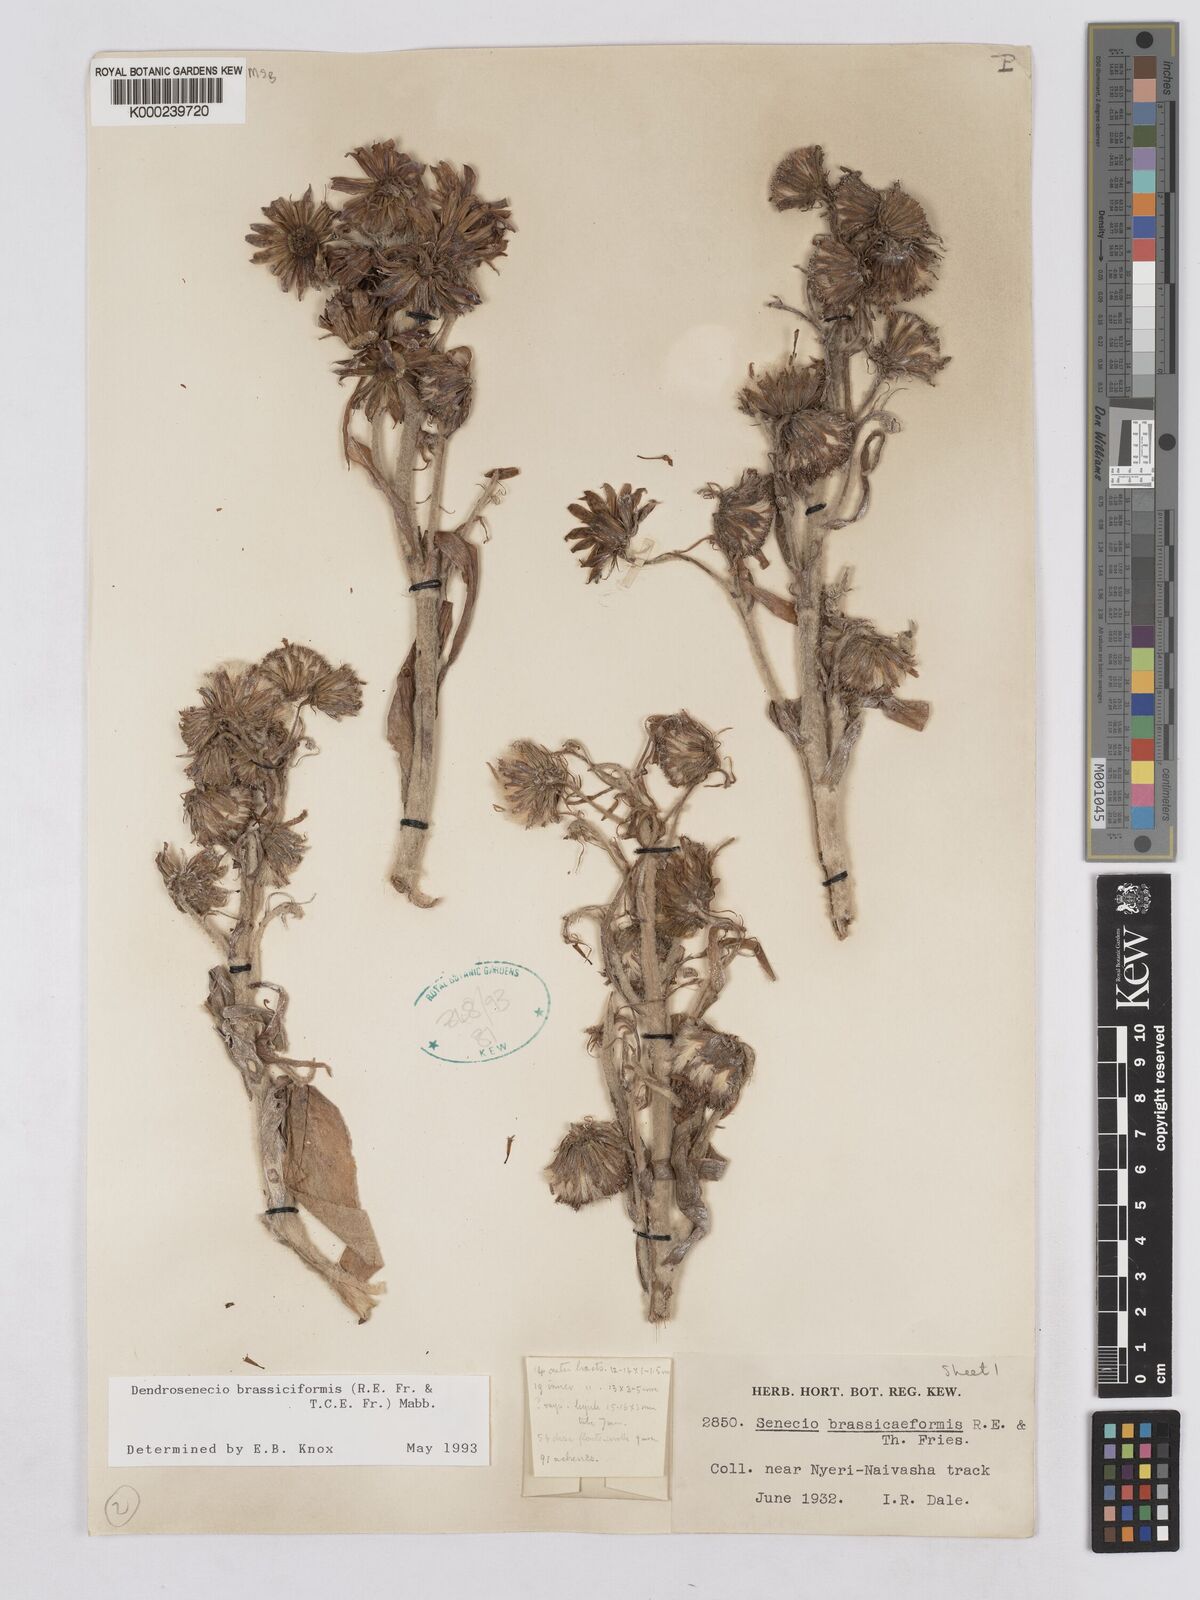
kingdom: Plantae
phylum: Tracheophyta
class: Magnoliopsida
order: Asterales
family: Asteraceae
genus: Dendrosenecio
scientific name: Dendrosenecio brassiciformis
